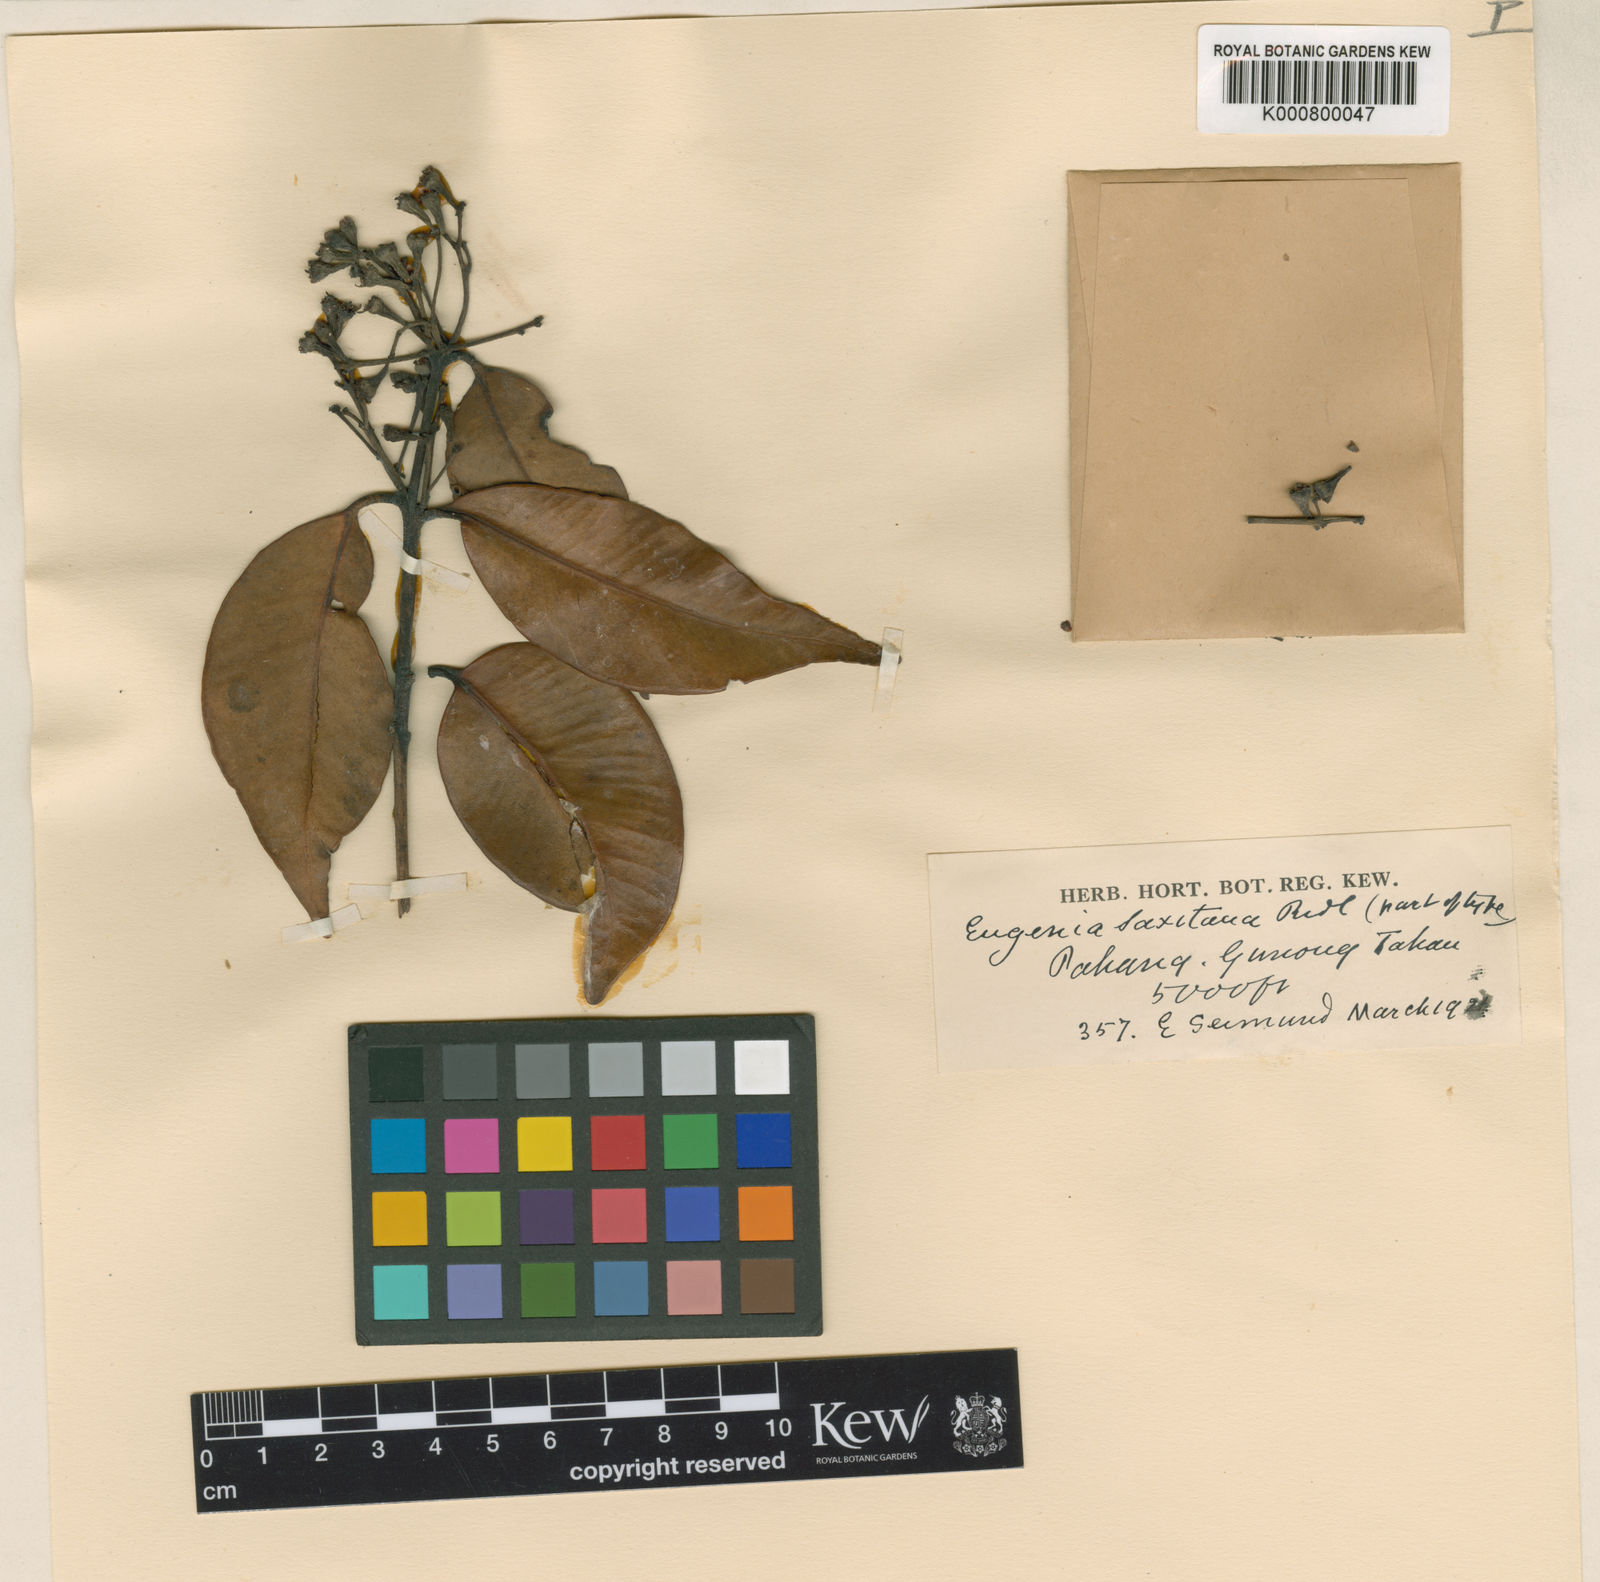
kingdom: Plantae
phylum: Tracheophyta
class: Magnoliopsida
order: Myrtales
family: Myrtaceae
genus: Syzygium
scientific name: Syzygium rugosum
